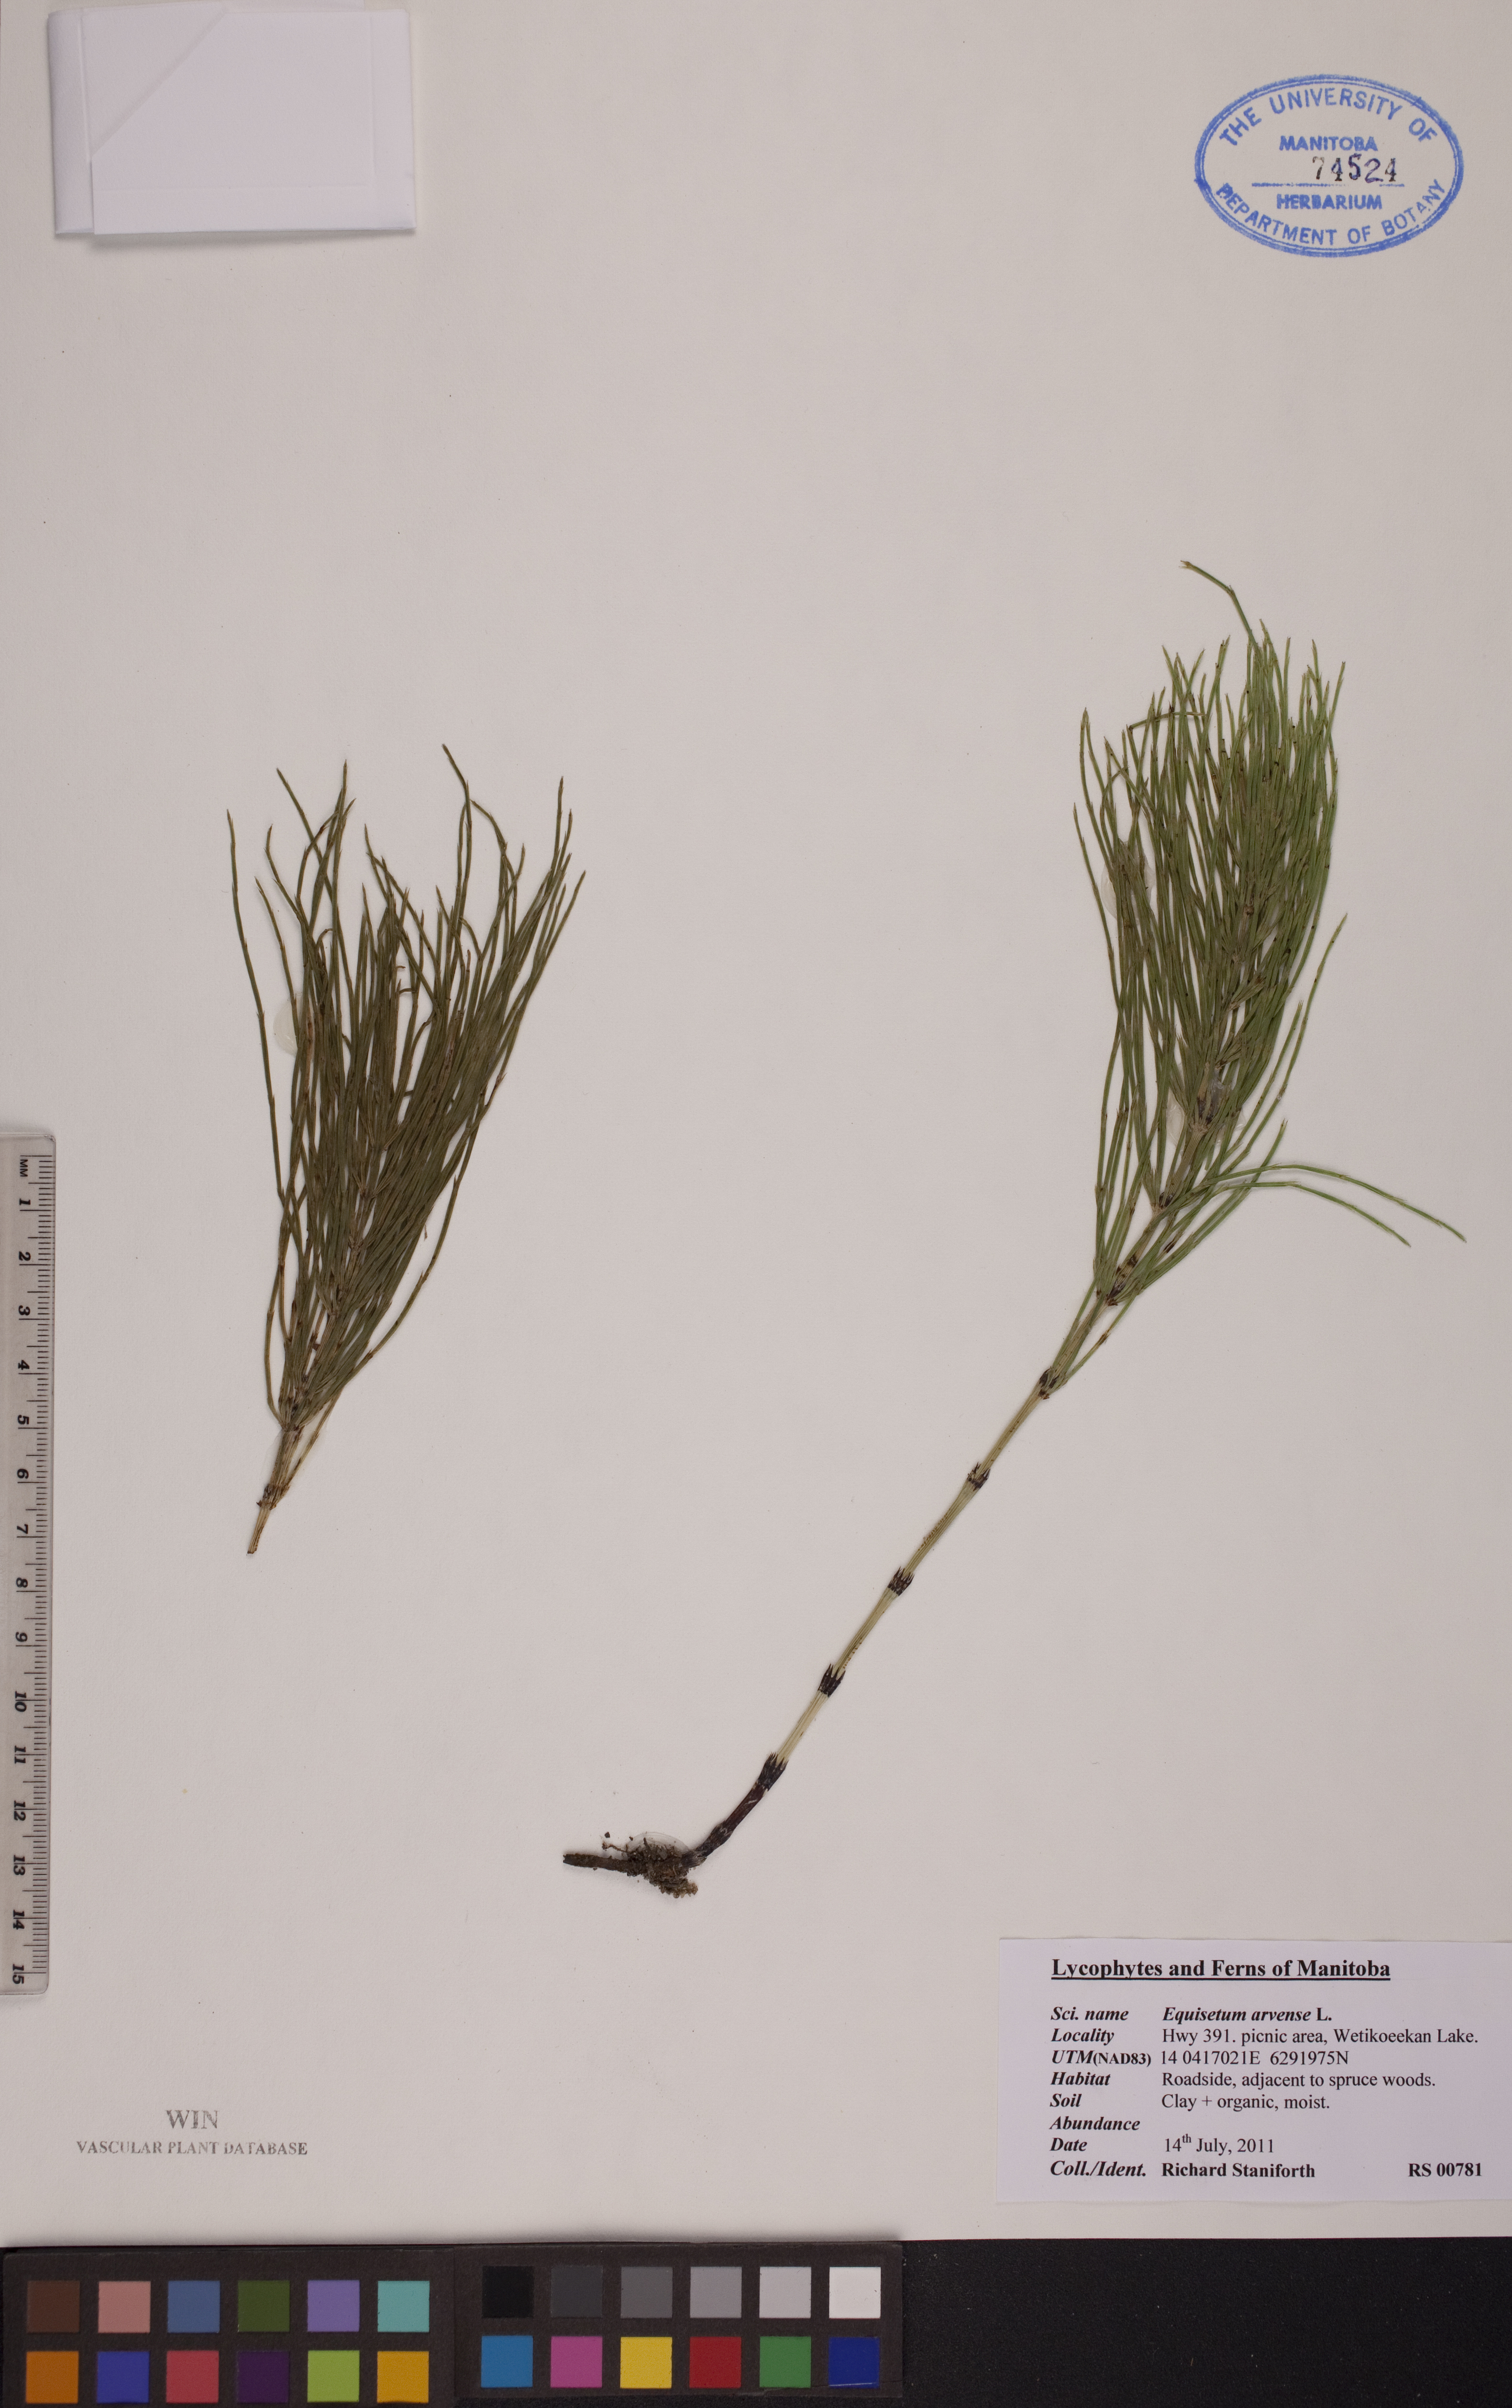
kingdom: Plantae
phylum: Tracheophyta
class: Polypodiopsida
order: Equisetales
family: Equisetaceae
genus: Equisetum
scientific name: Equisetum arvense
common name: Field horsetail
